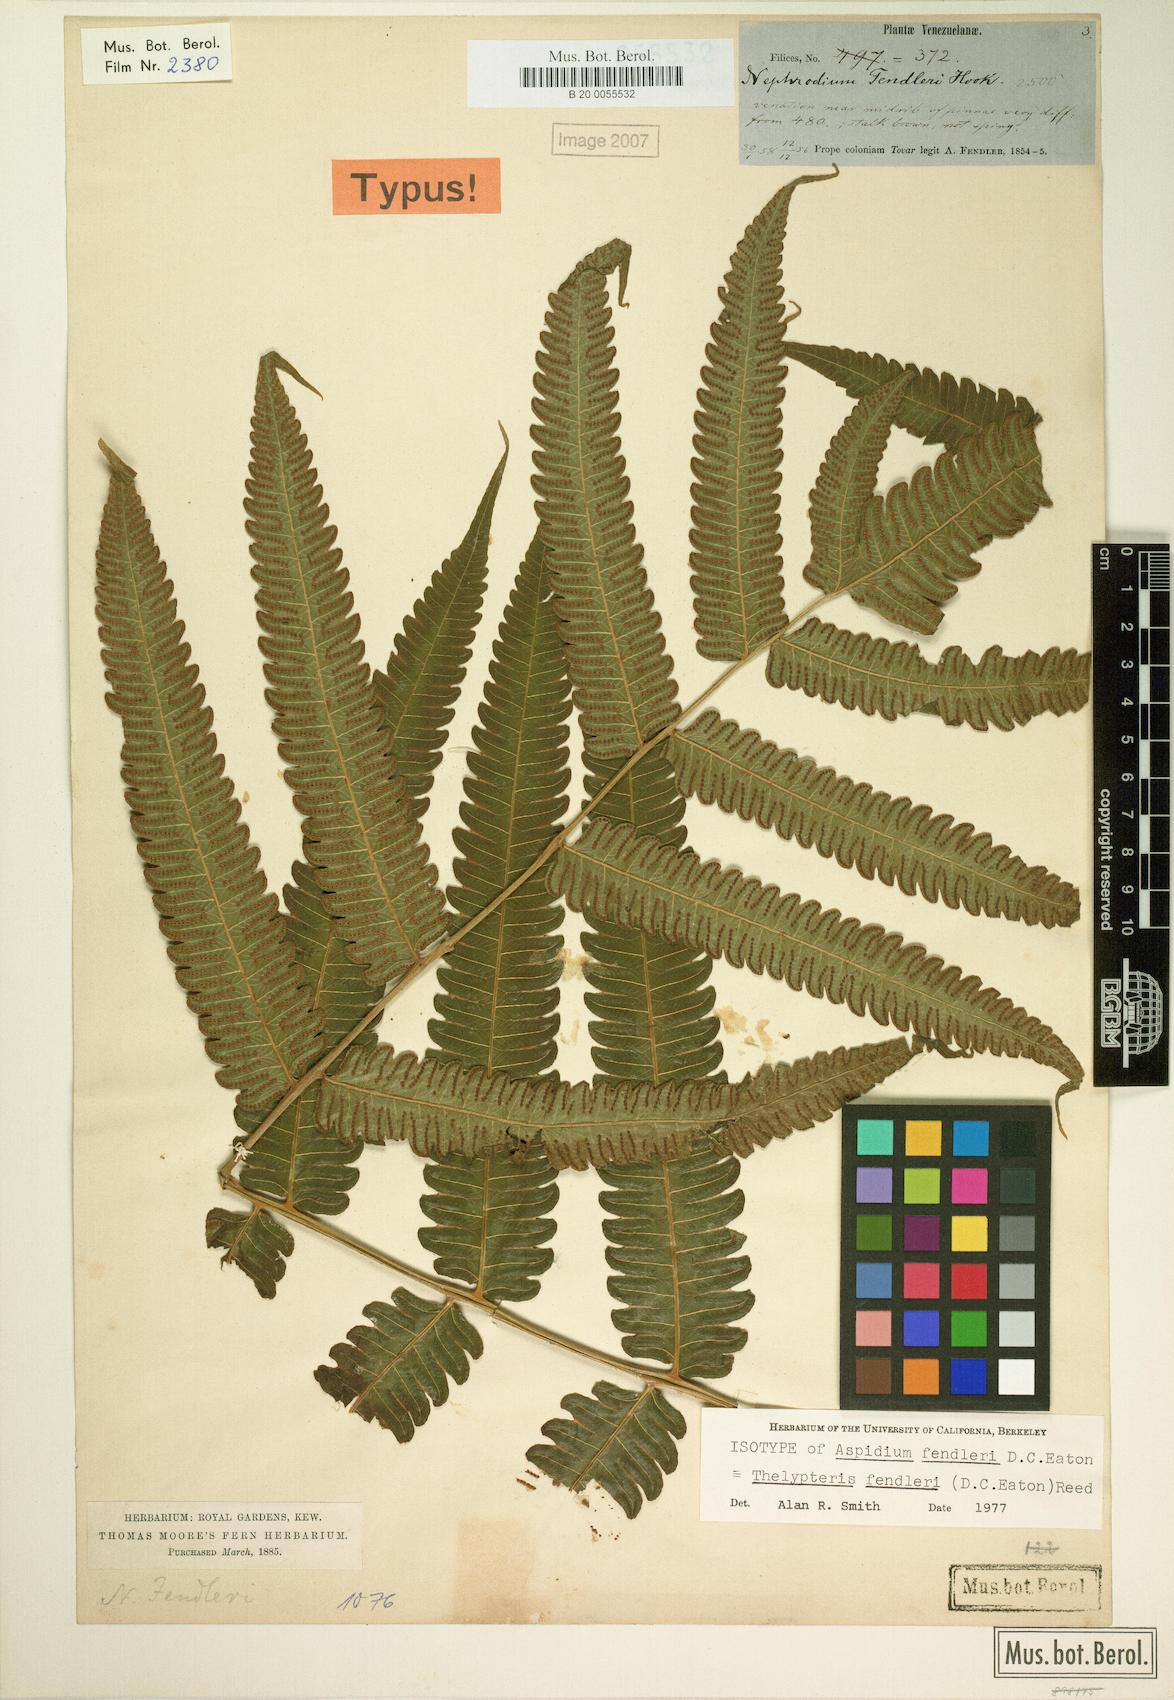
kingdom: Plantae
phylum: Tracheophyta
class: Polypodiopsida
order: Polypodiales
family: Thelypteridaceae
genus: Steiropteris
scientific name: Steiropteris fendleri
